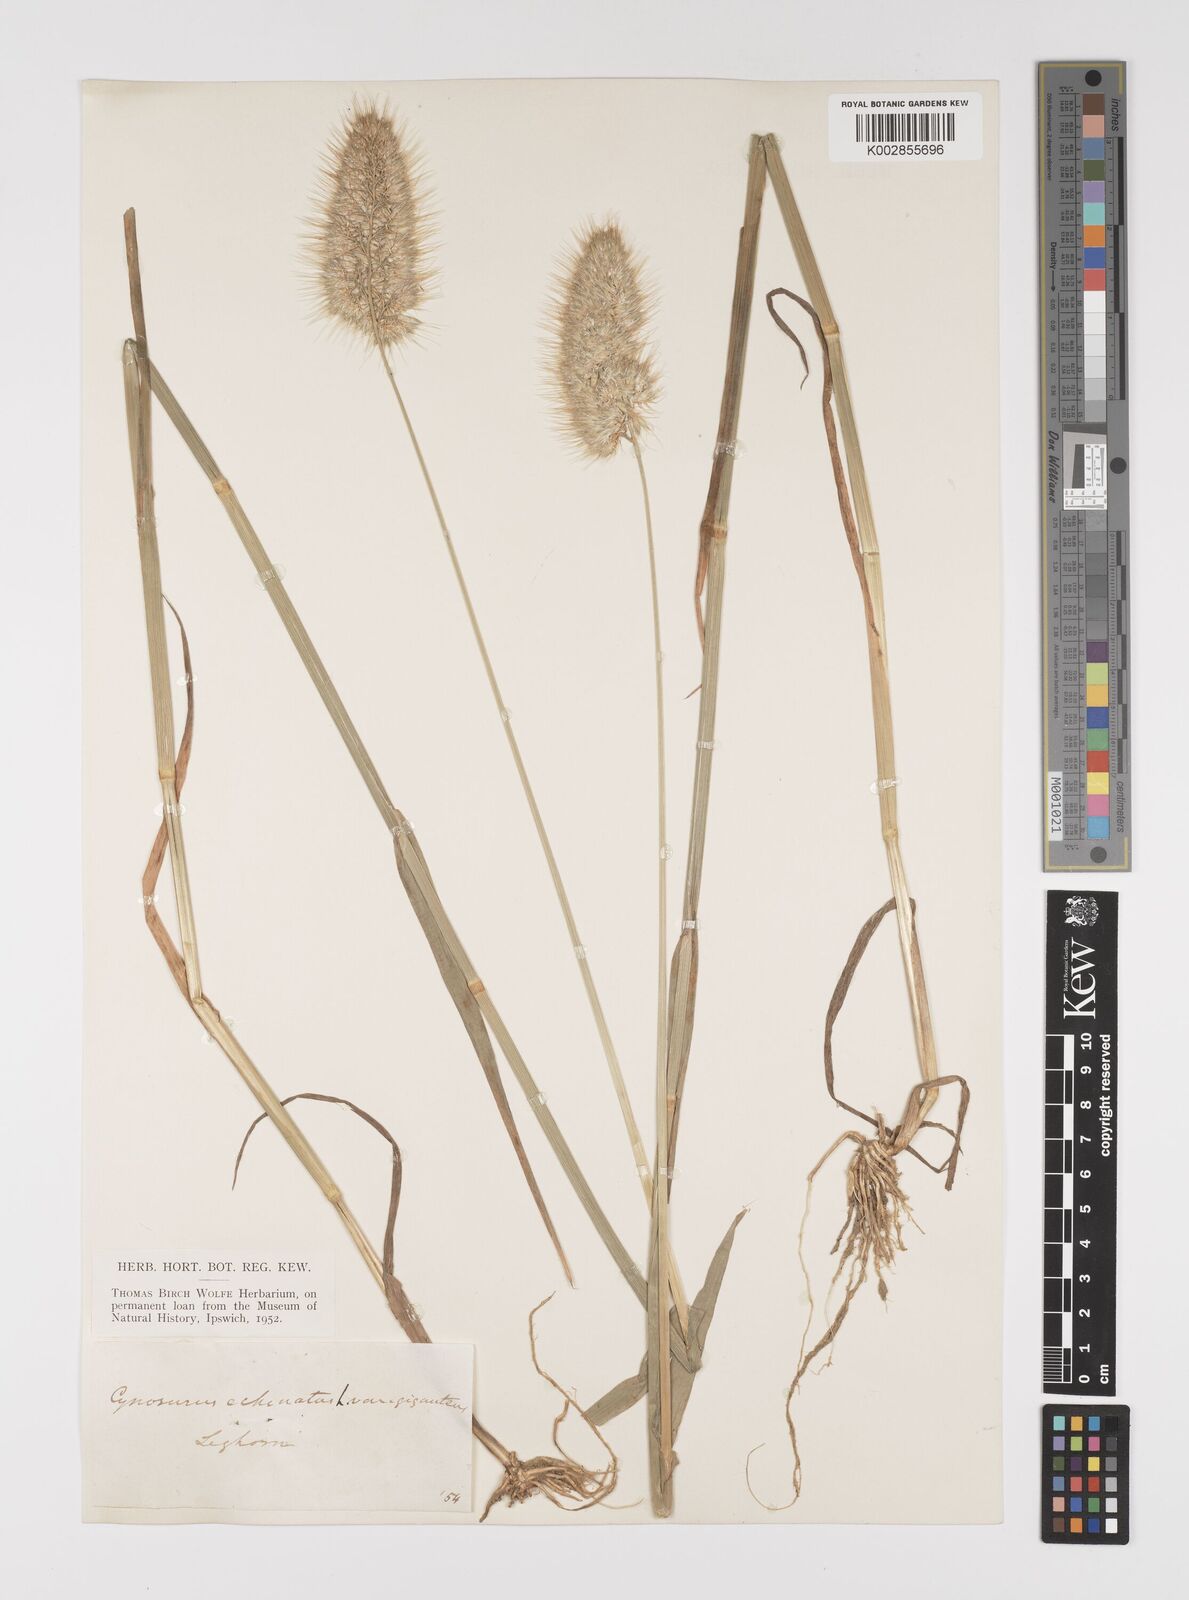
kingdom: Plantae
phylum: Tracheophyta
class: Liliopsida
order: Poales
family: Poaceae
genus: Cynosurus
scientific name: Cynosurus echinatus
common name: Rough dog's-tail
